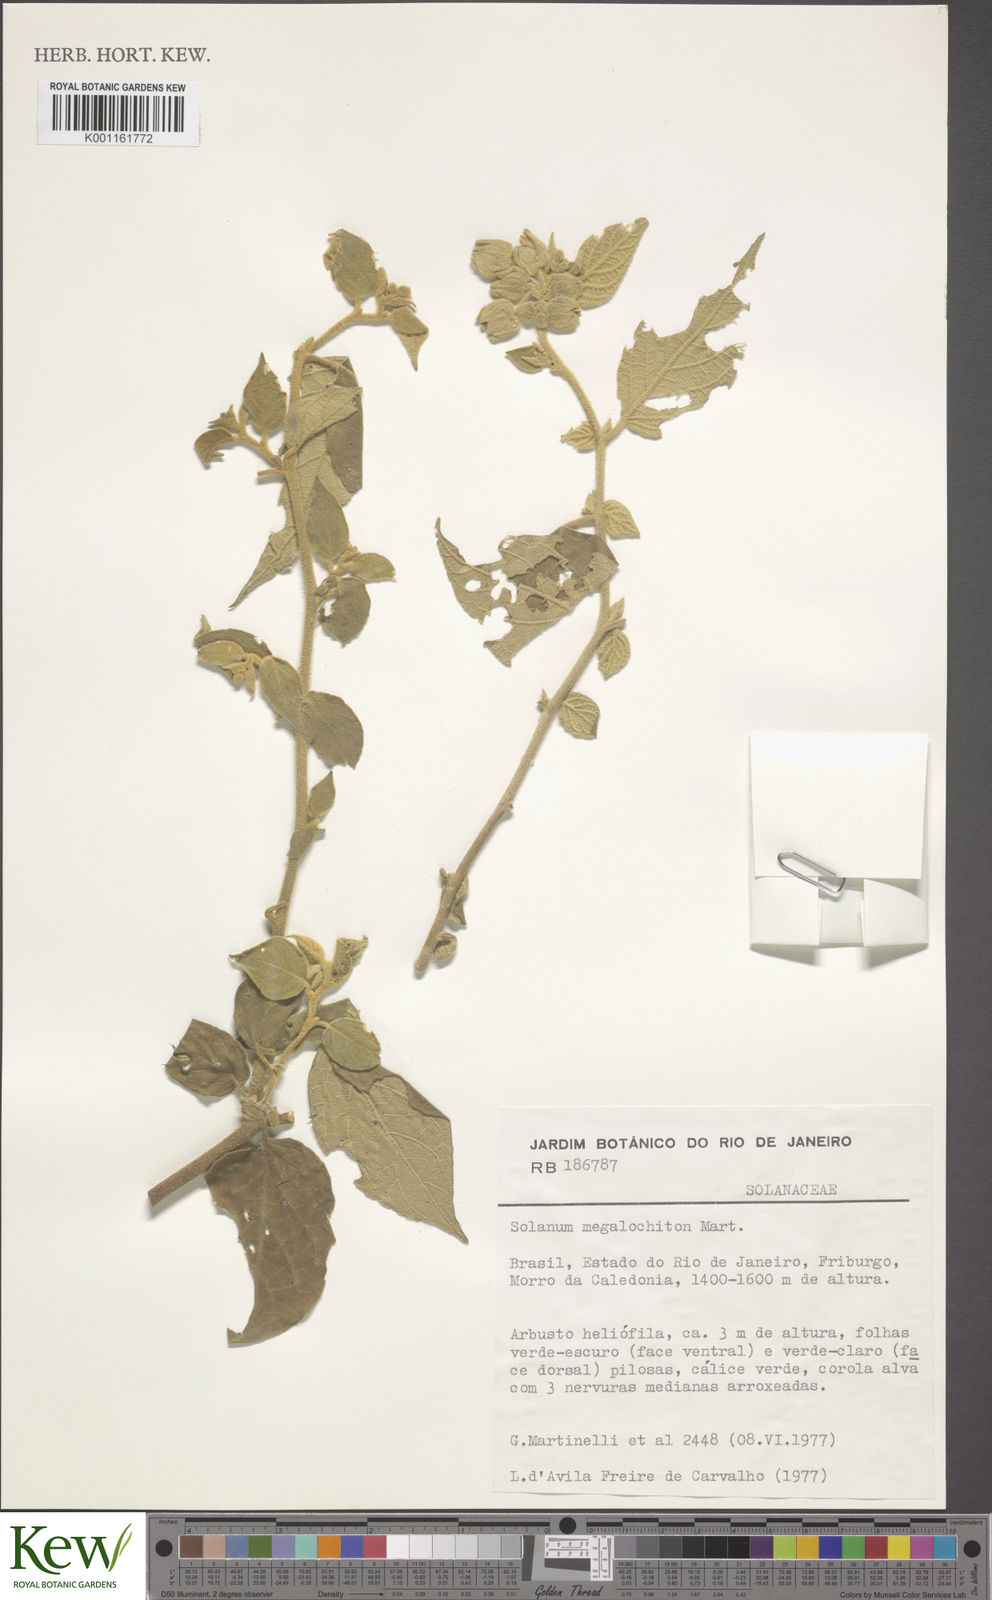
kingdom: Plantae
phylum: Tracheophyta
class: Magnoliopsida
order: Solanales
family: Solanaceae
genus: Solanum
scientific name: Solanum didymum
